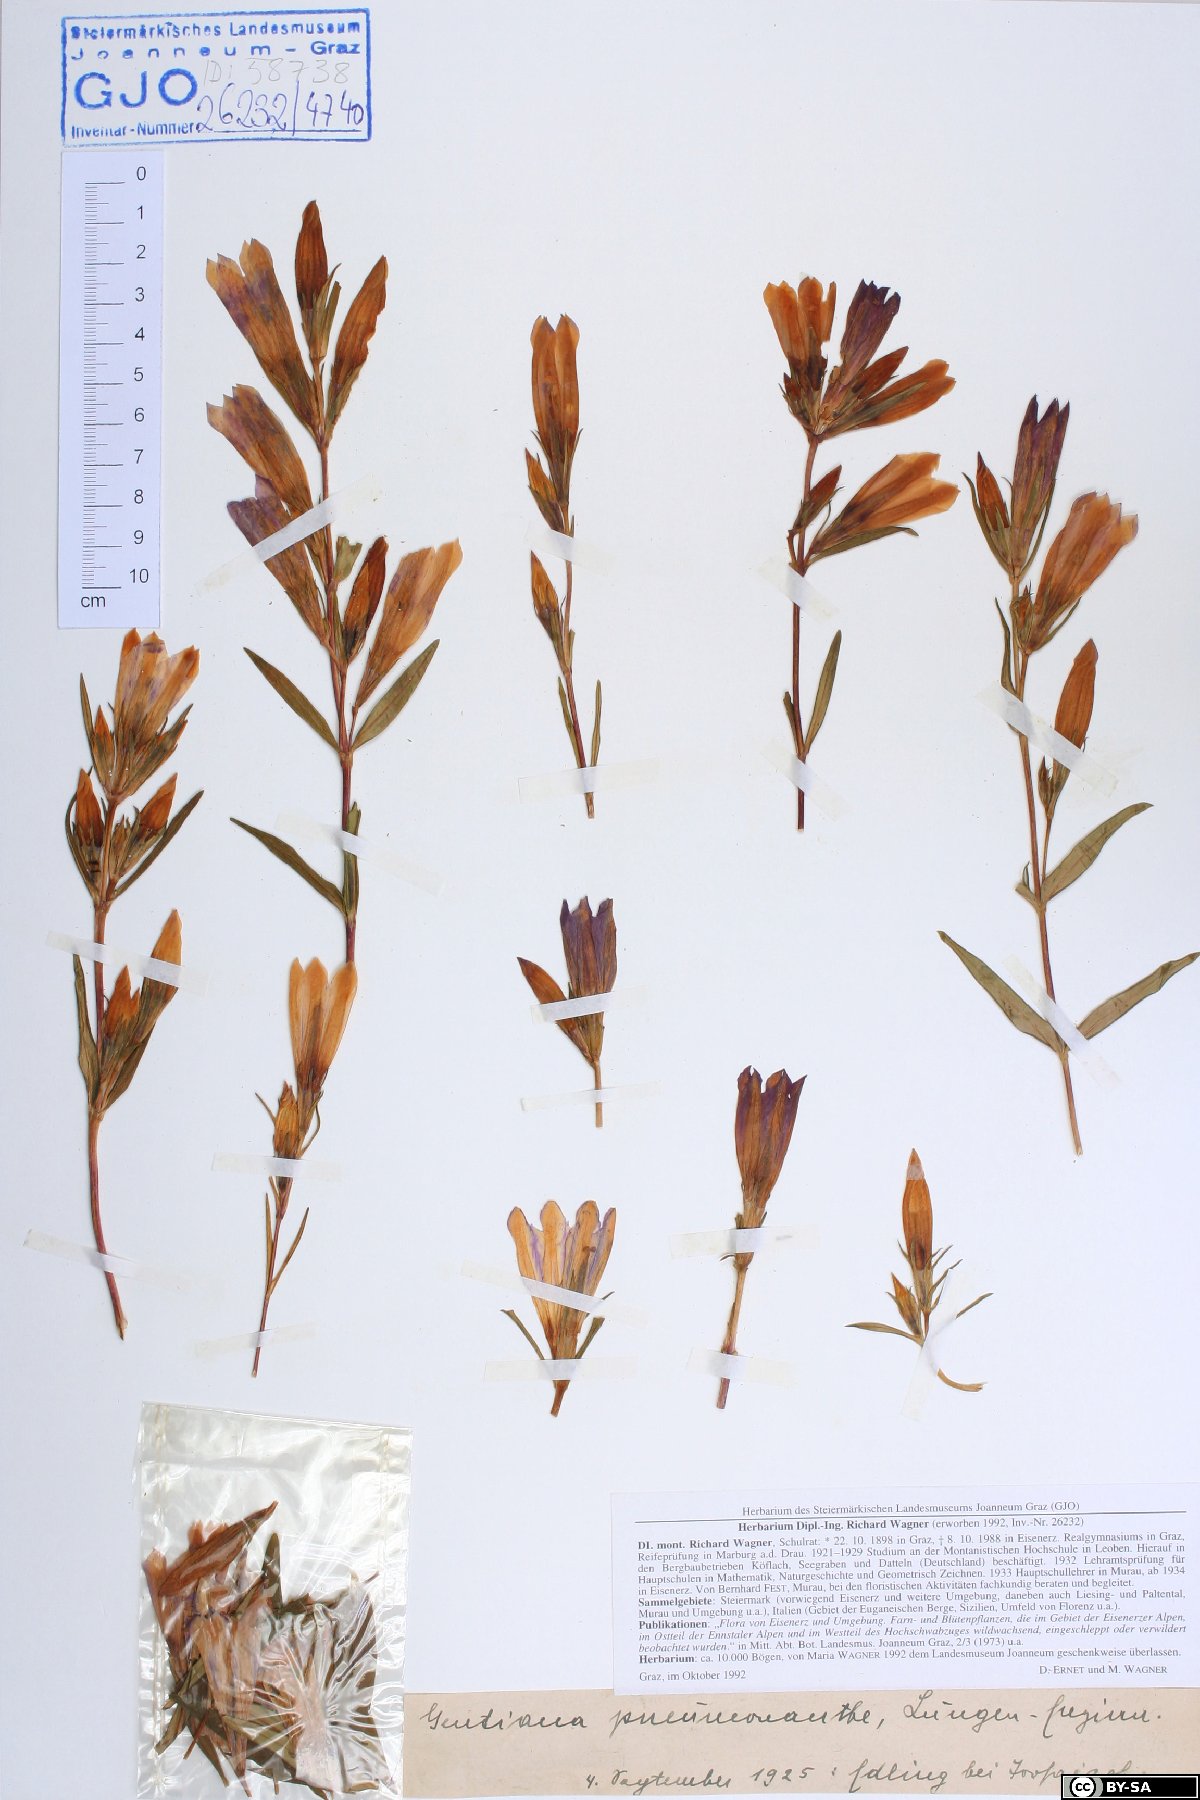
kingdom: Plantae
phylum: Tracheophyta
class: Magnoliopsida
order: Dipsacales
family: Caprifoliaceae
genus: Knautia
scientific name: Knautia drymeia
